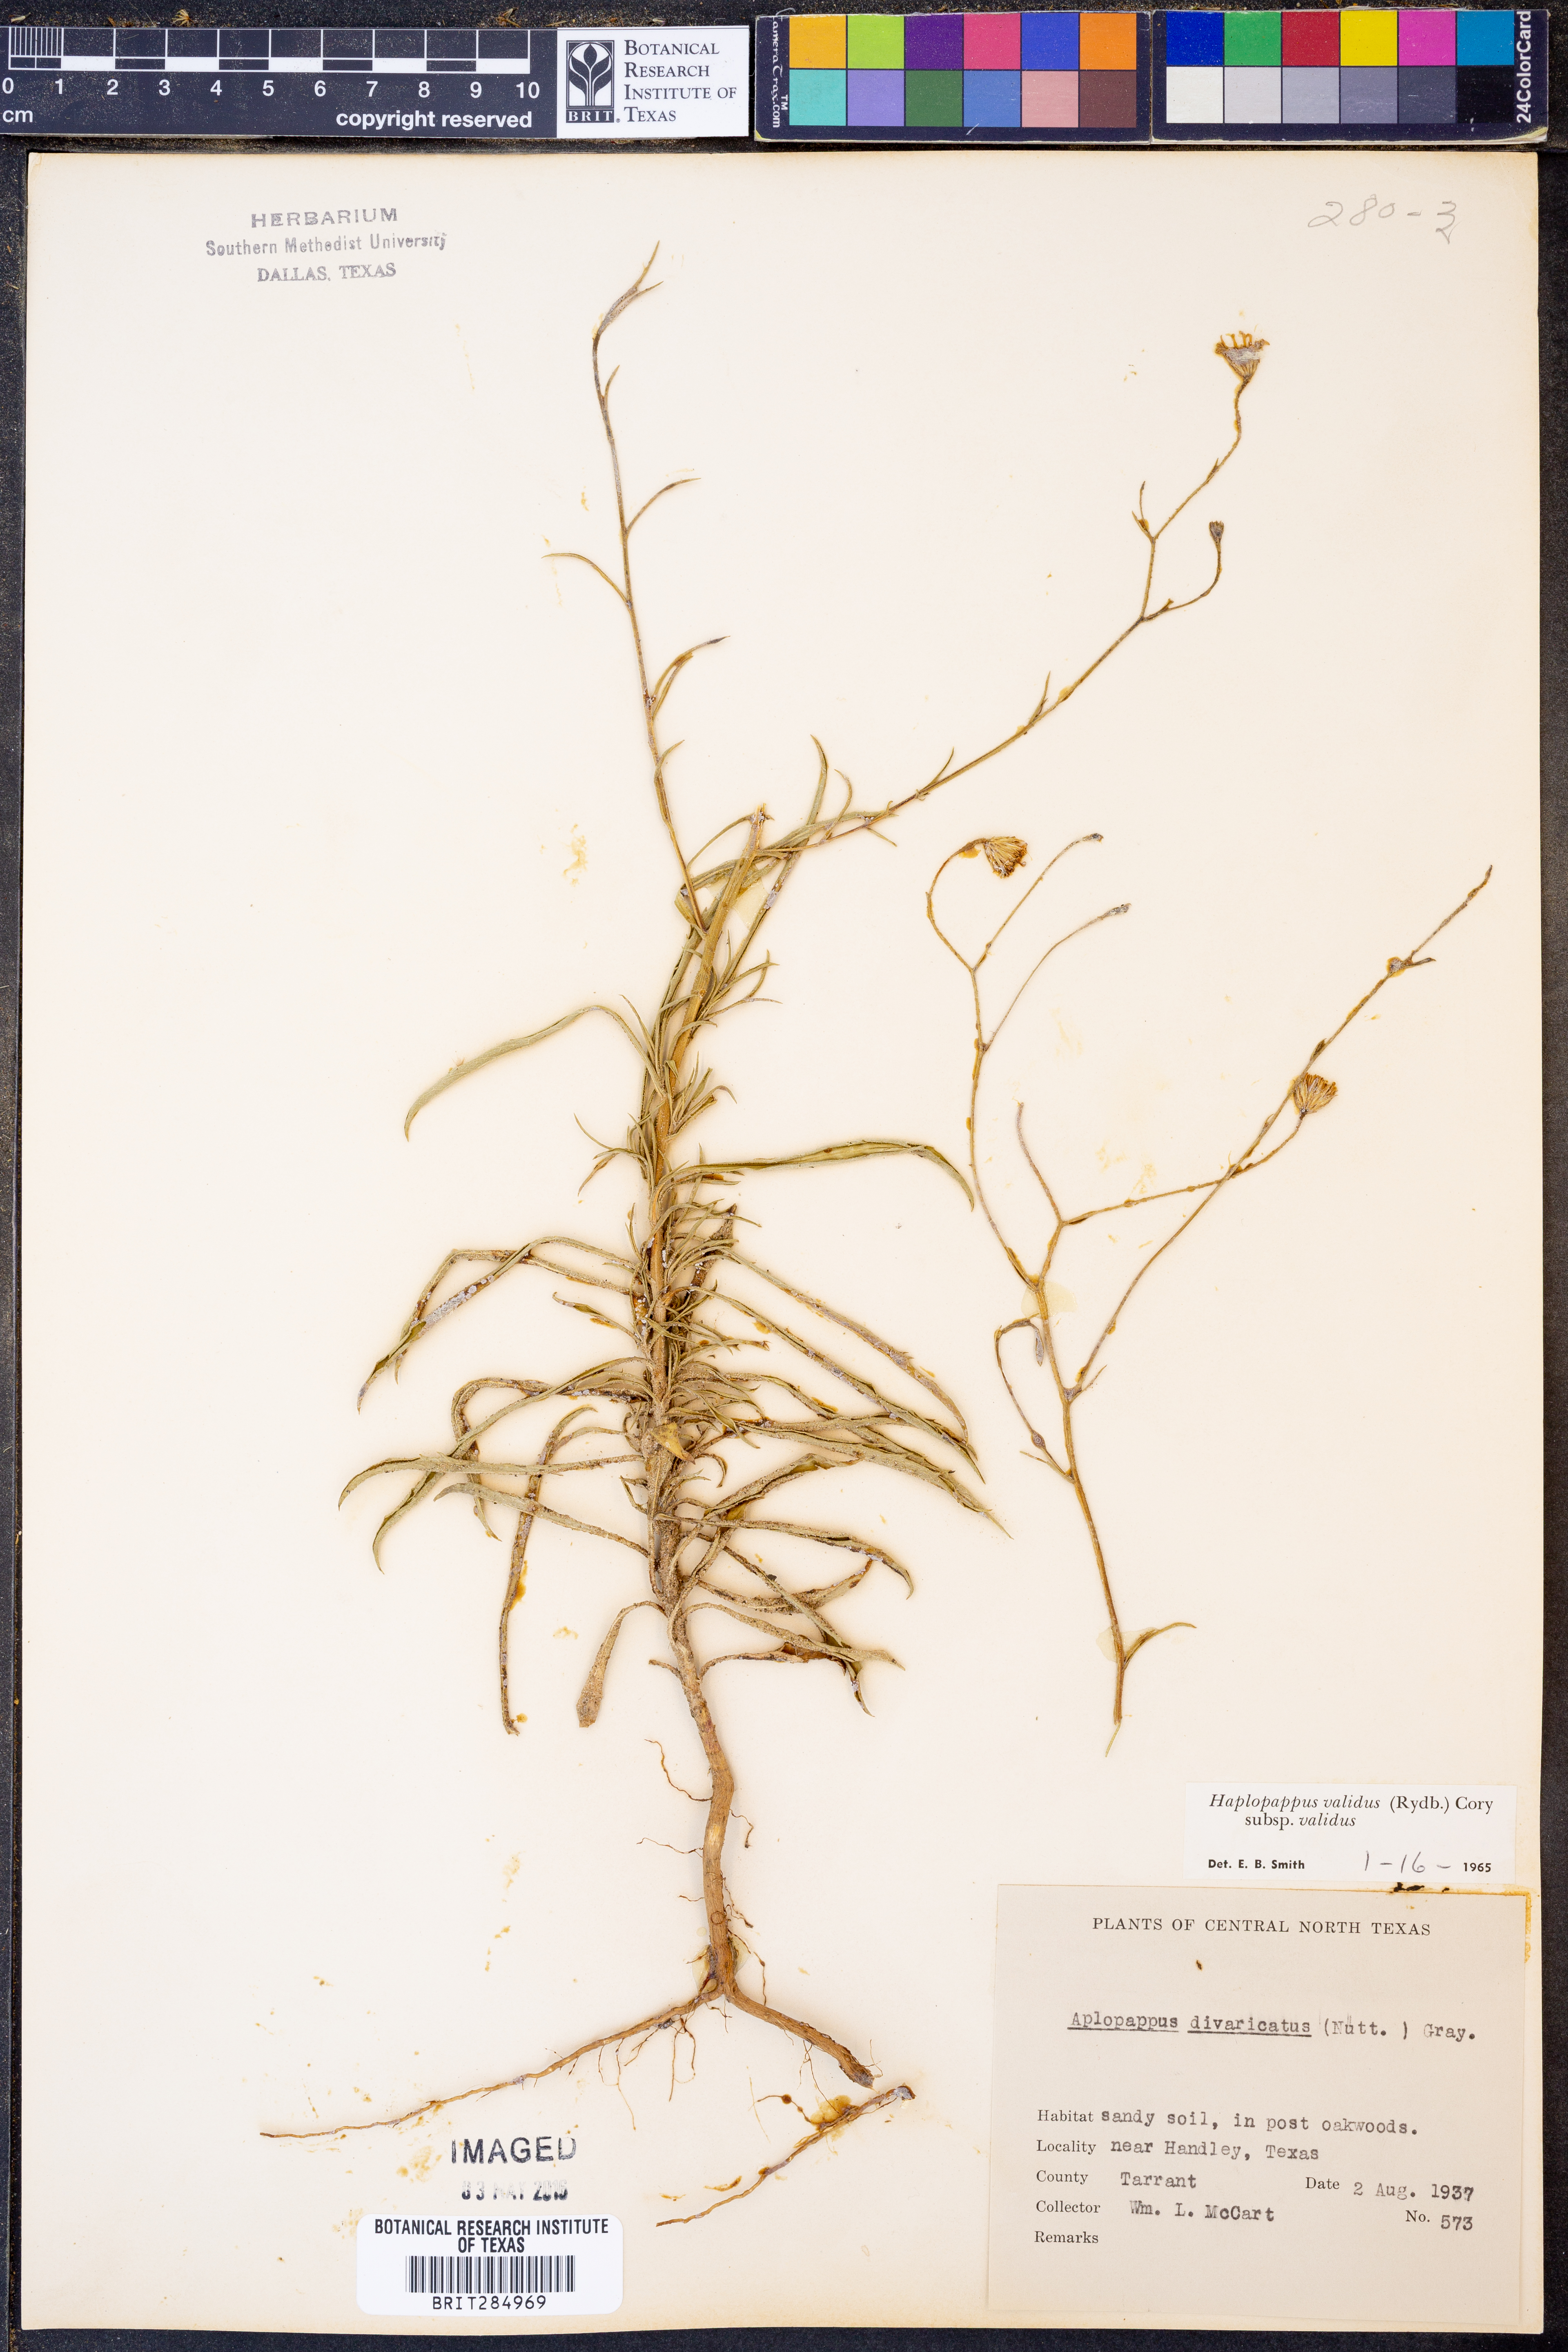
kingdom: Plantae
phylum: Tracheophyta
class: Magnoliopsida
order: Asterales
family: Asteraceae
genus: Croptilon
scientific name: Croptilon hookerianum
